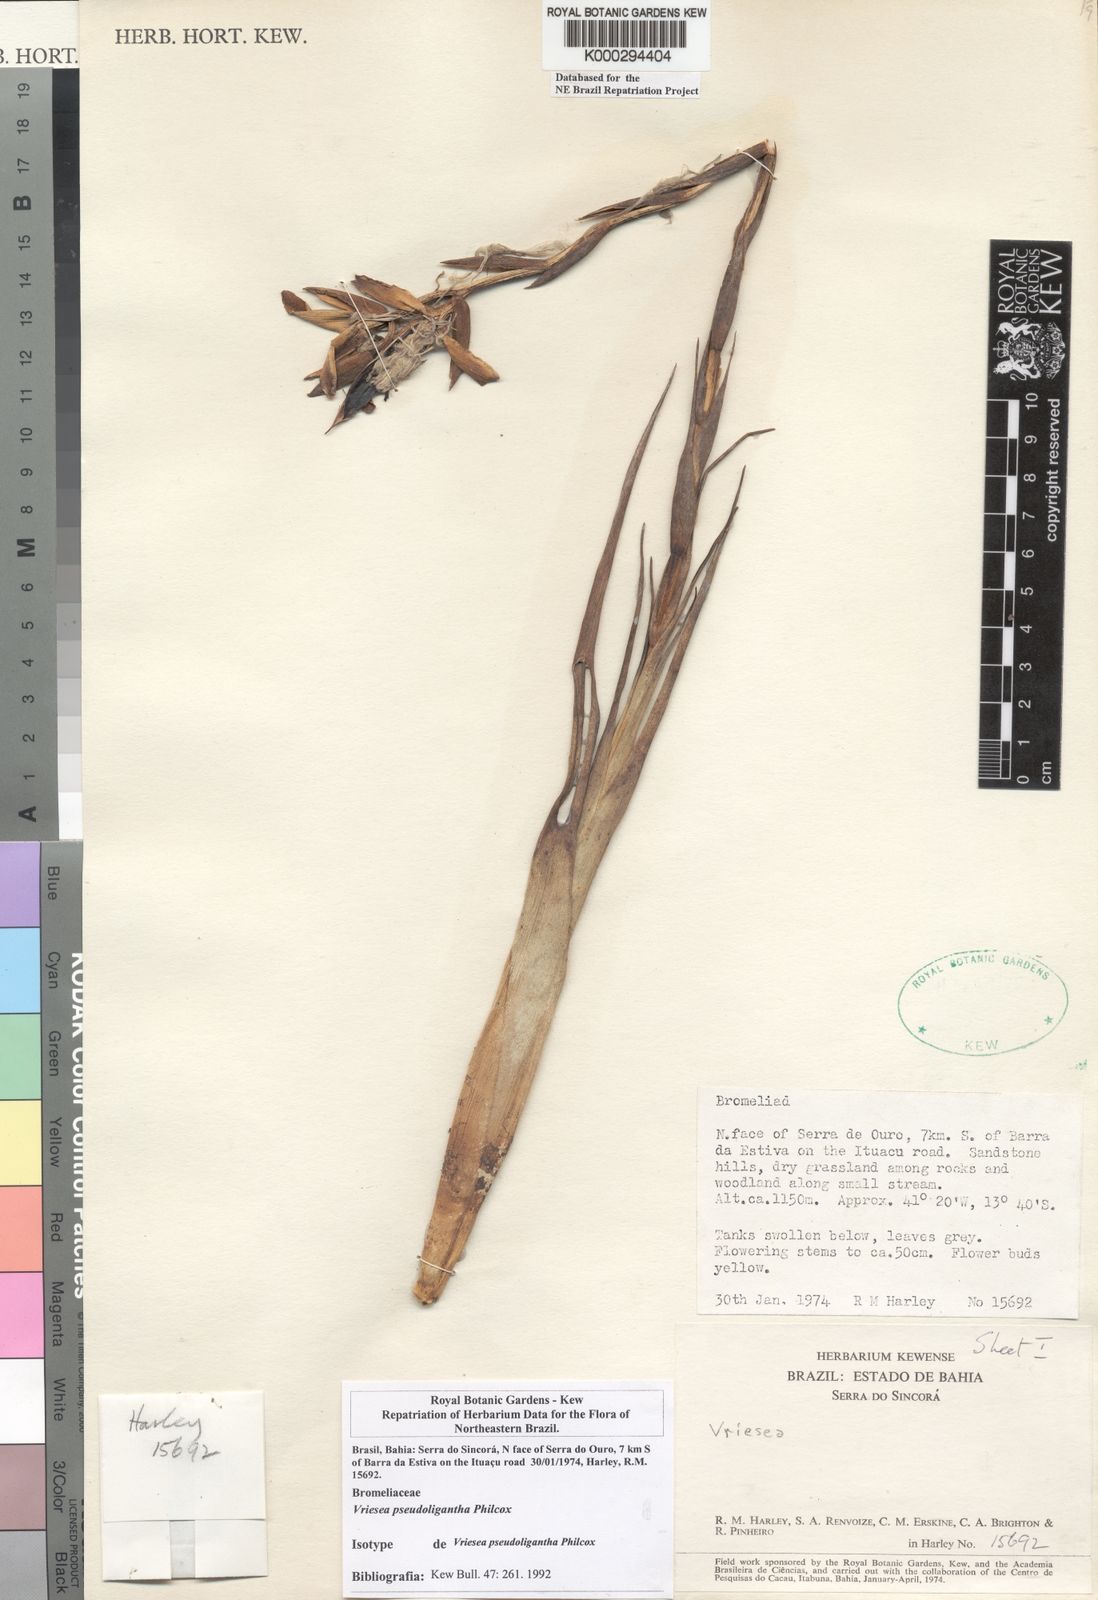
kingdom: Plantae
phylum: Tracheophyta
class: Liliopsida
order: Poales
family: Bromeliaceae
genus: Vriesea
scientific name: Vriesea pseudoligantha
